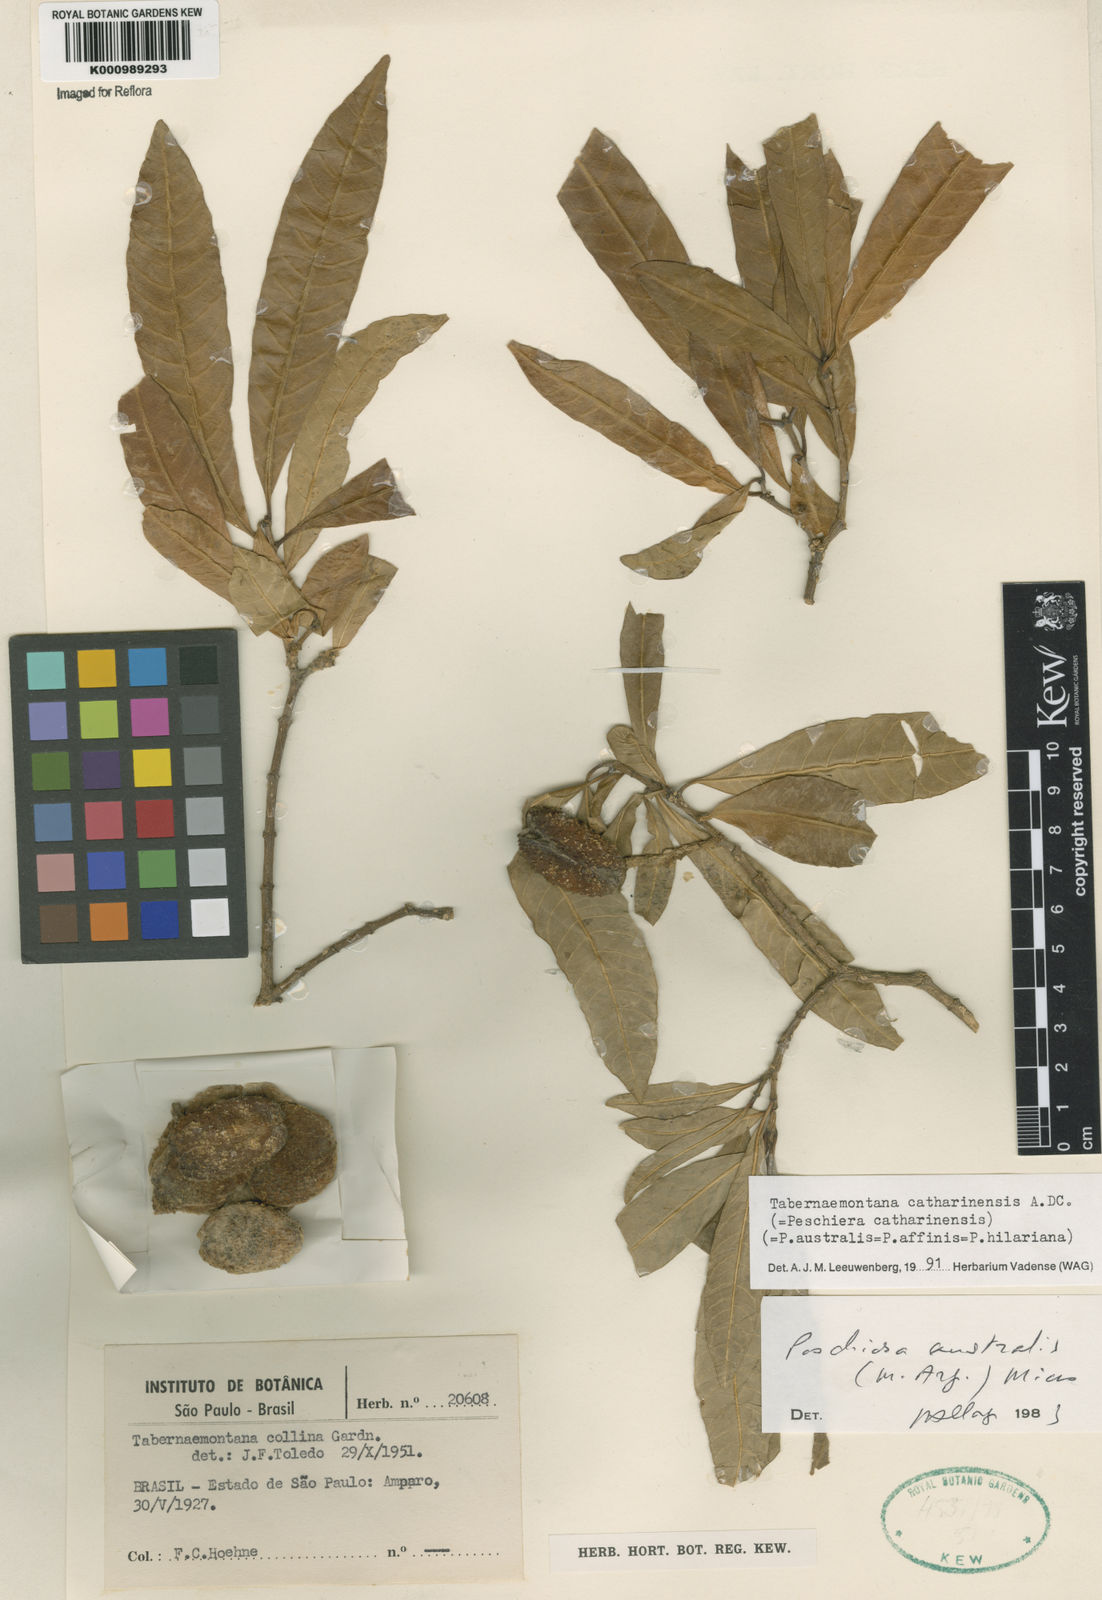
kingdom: Plantae
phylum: Tracheophyta
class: Magnoliopsida
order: Gentianales
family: Apocynaceae
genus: Tabernaemontana
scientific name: Tabernaemontana catharinensis
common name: Pinwheel-flower
